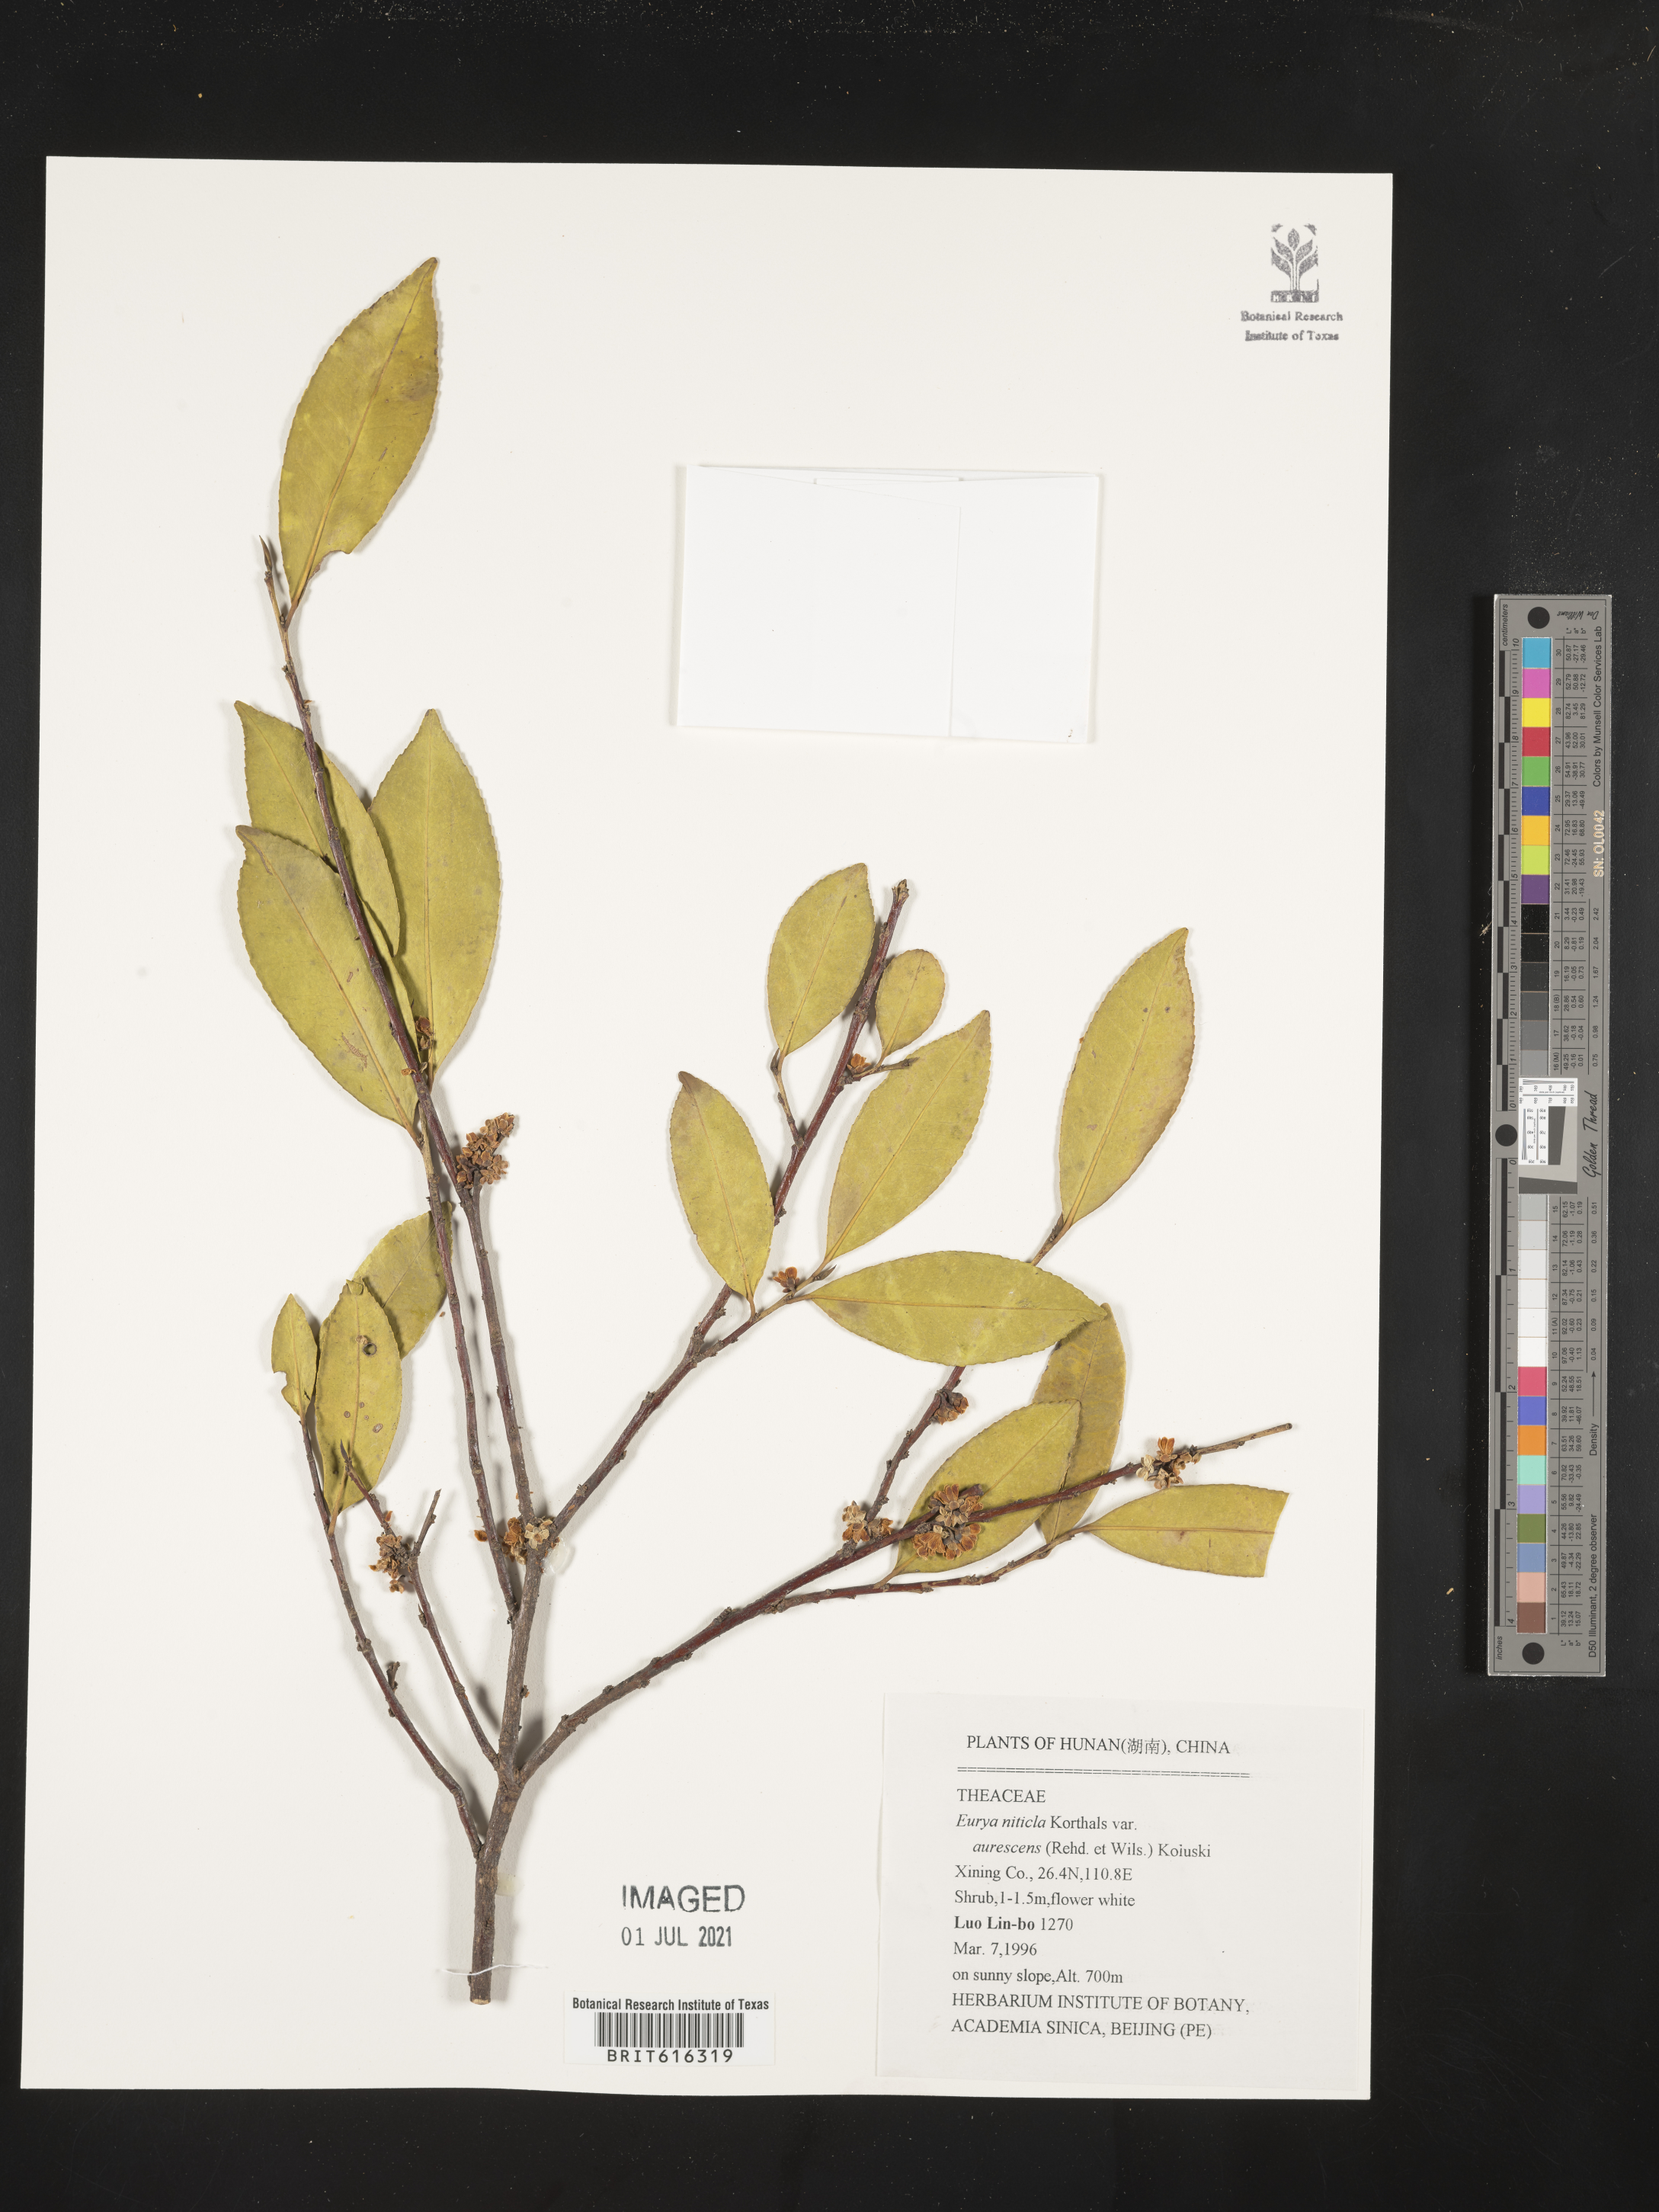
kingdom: Plantae
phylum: Tracheophyta
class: Magnoliopsida
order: Ericales
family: Pentaphylacaceae
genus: Eurya
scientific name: Eurya nitida
